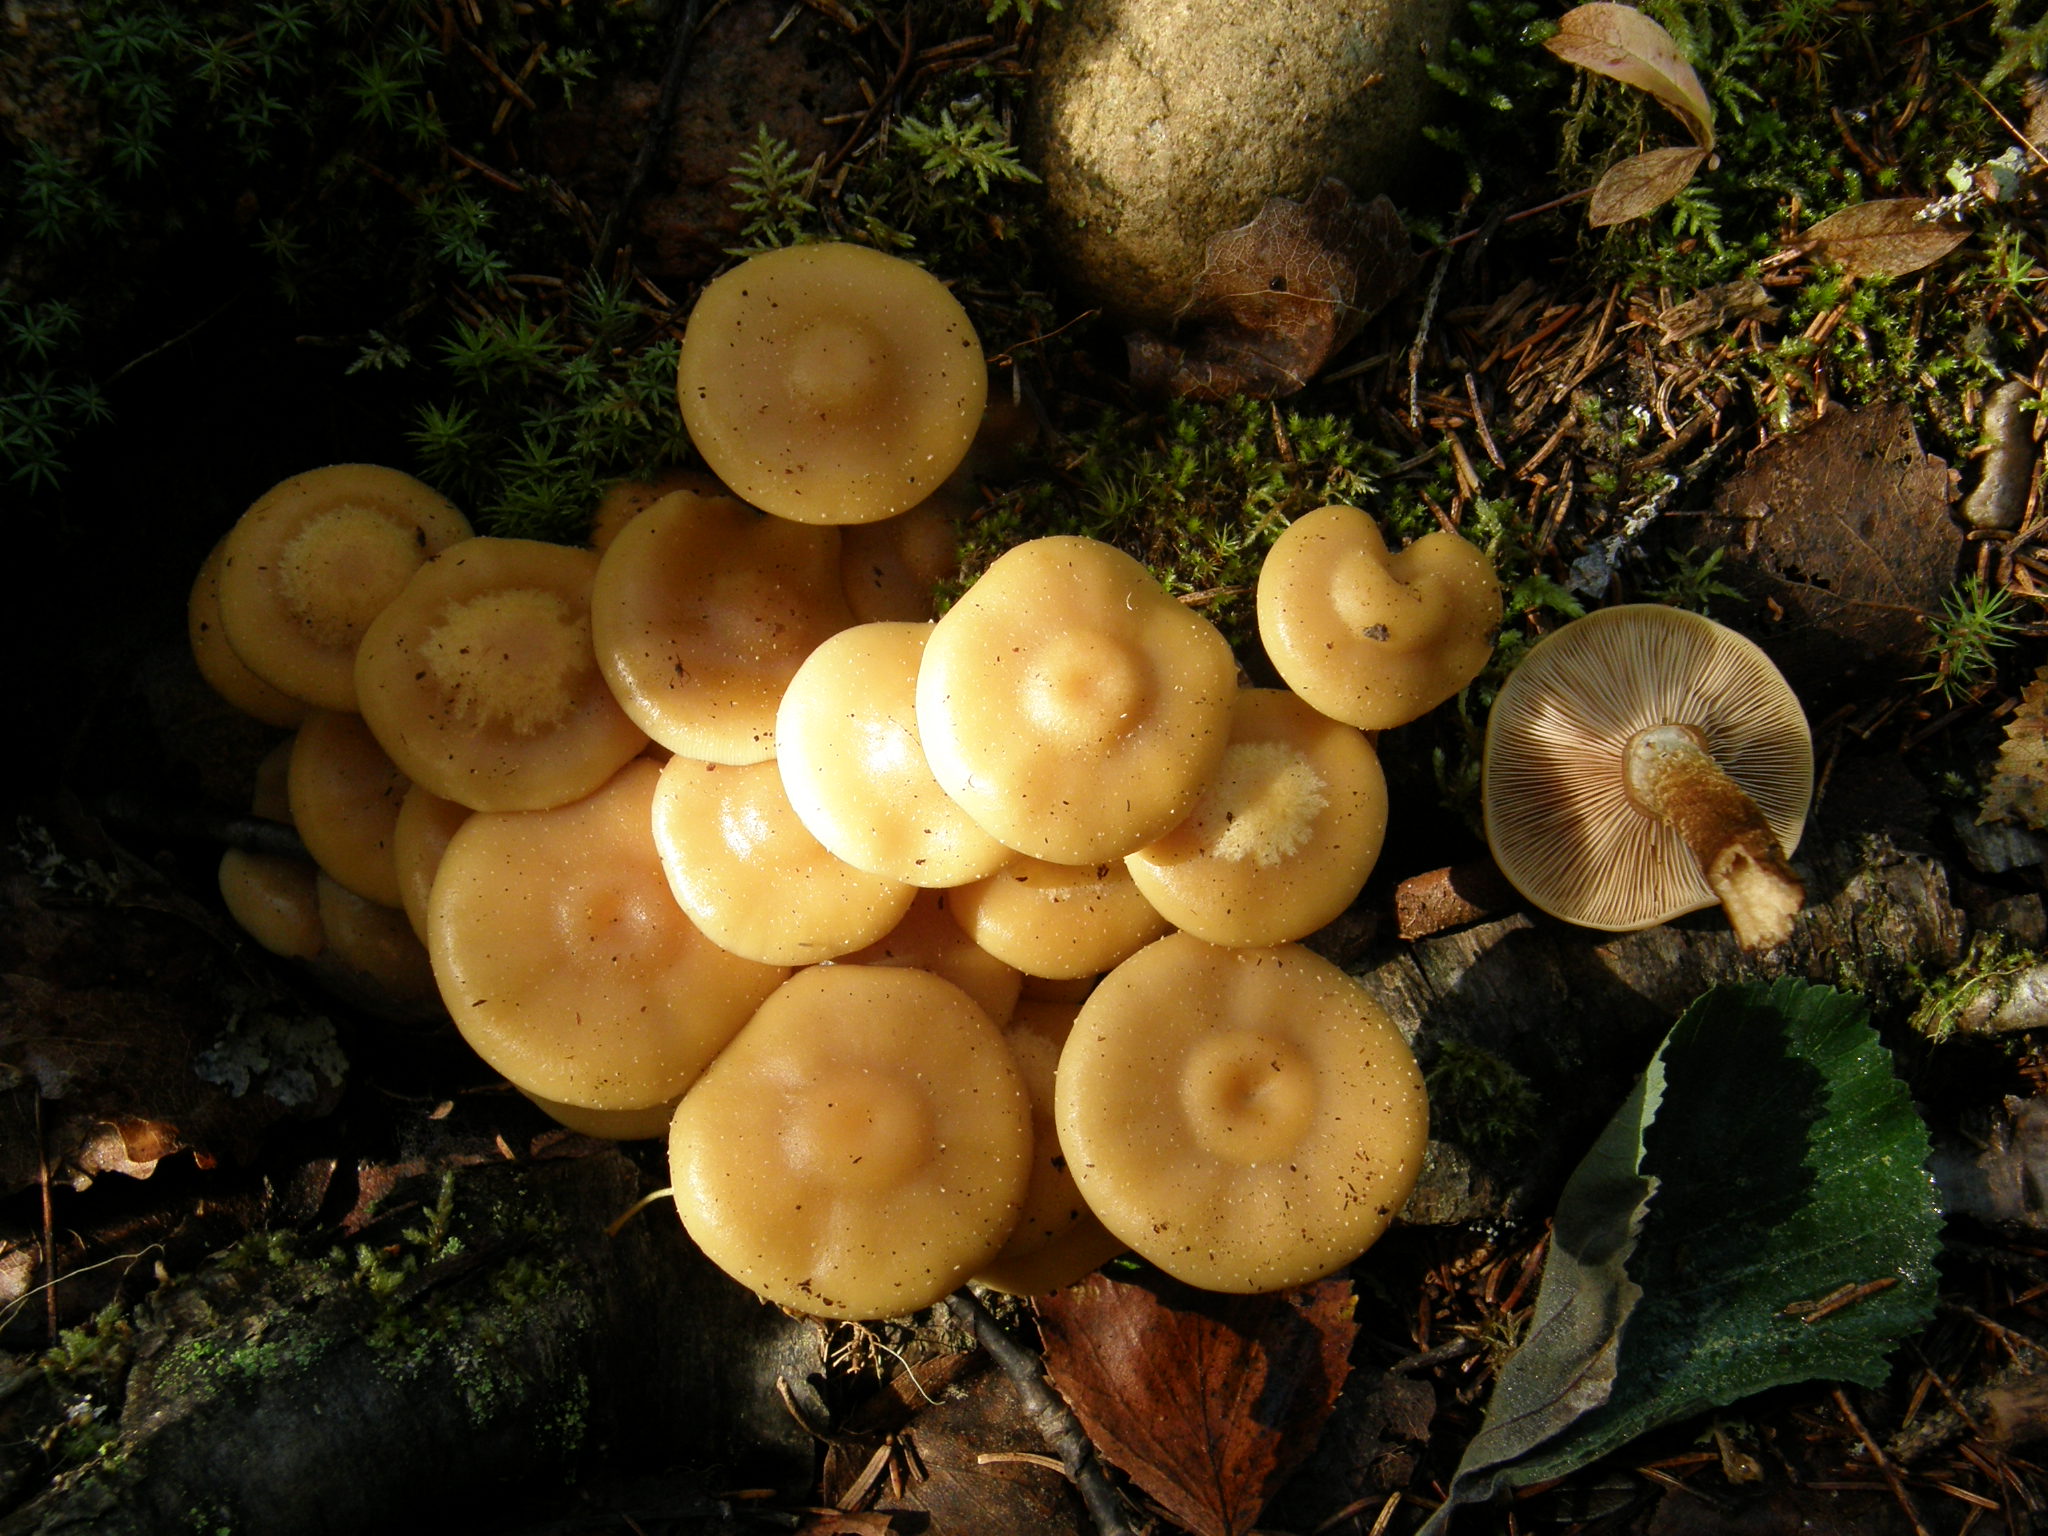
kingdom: Fungi
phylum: Basidiomycota
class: Agaricomycetes
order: Agaricales
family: Strophariaceae
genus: Kuehneromyces
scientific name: Kuehneromyces mutabilis
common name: Sheathed woodtuft
